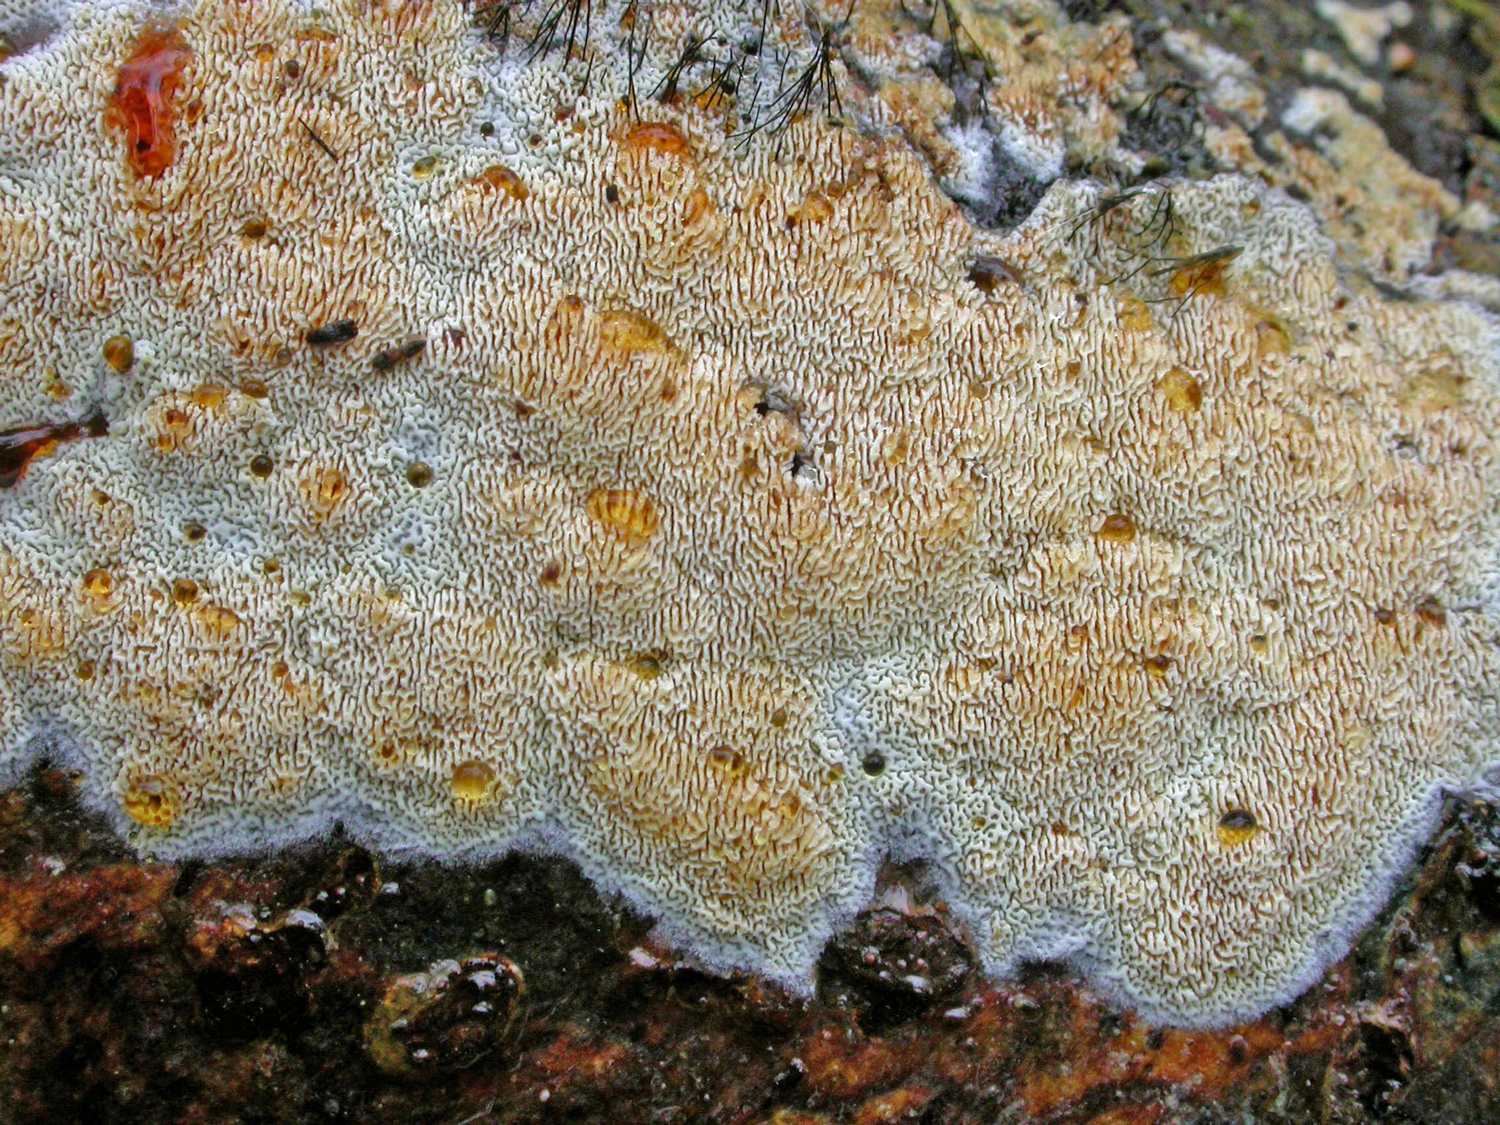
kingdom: Fungi
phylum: Basidiomycota
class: Agaricomycetes
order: Hymenochaetales
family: Schizoporaceae
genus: Schizopora
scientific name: Schizopora paradoxa
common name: hvid tandsvamp
